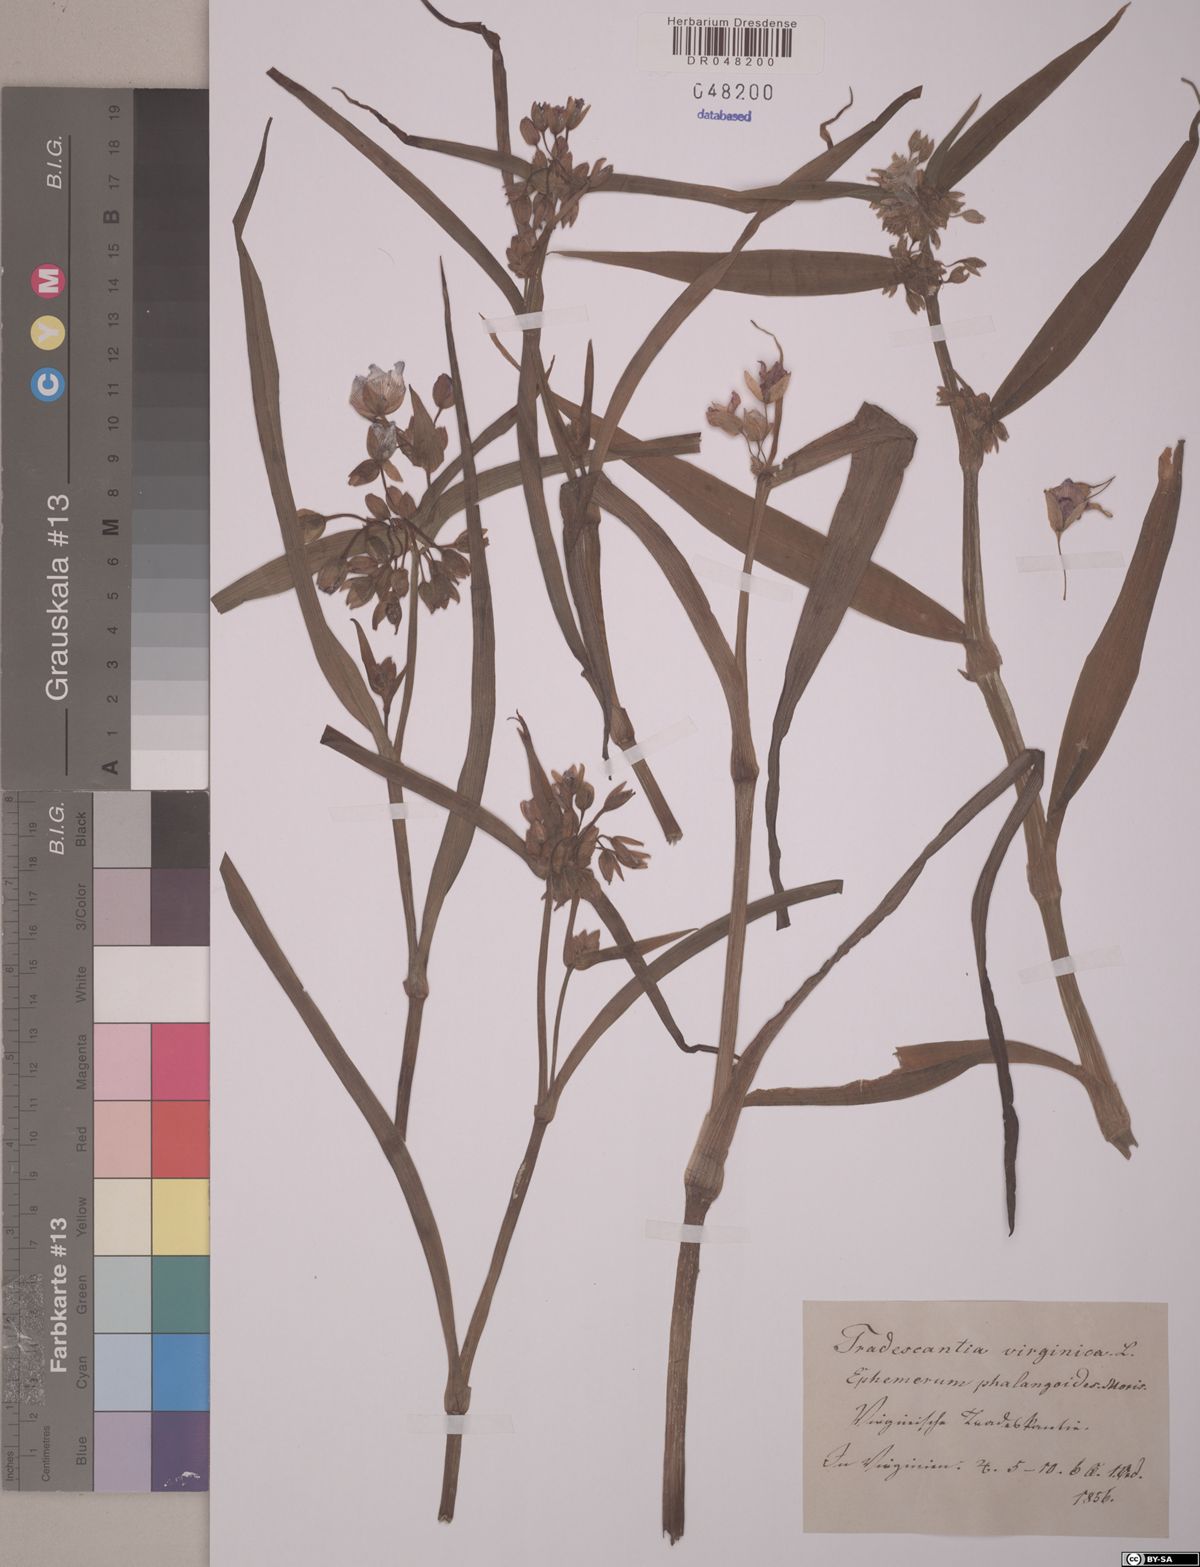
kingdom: Plantae
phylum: Tracheophyta
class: Liliopsida
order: Commelinales
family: Commelinaceae
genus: Tradescantia
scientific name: Tradescantia virginiana
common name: Spiderwort
